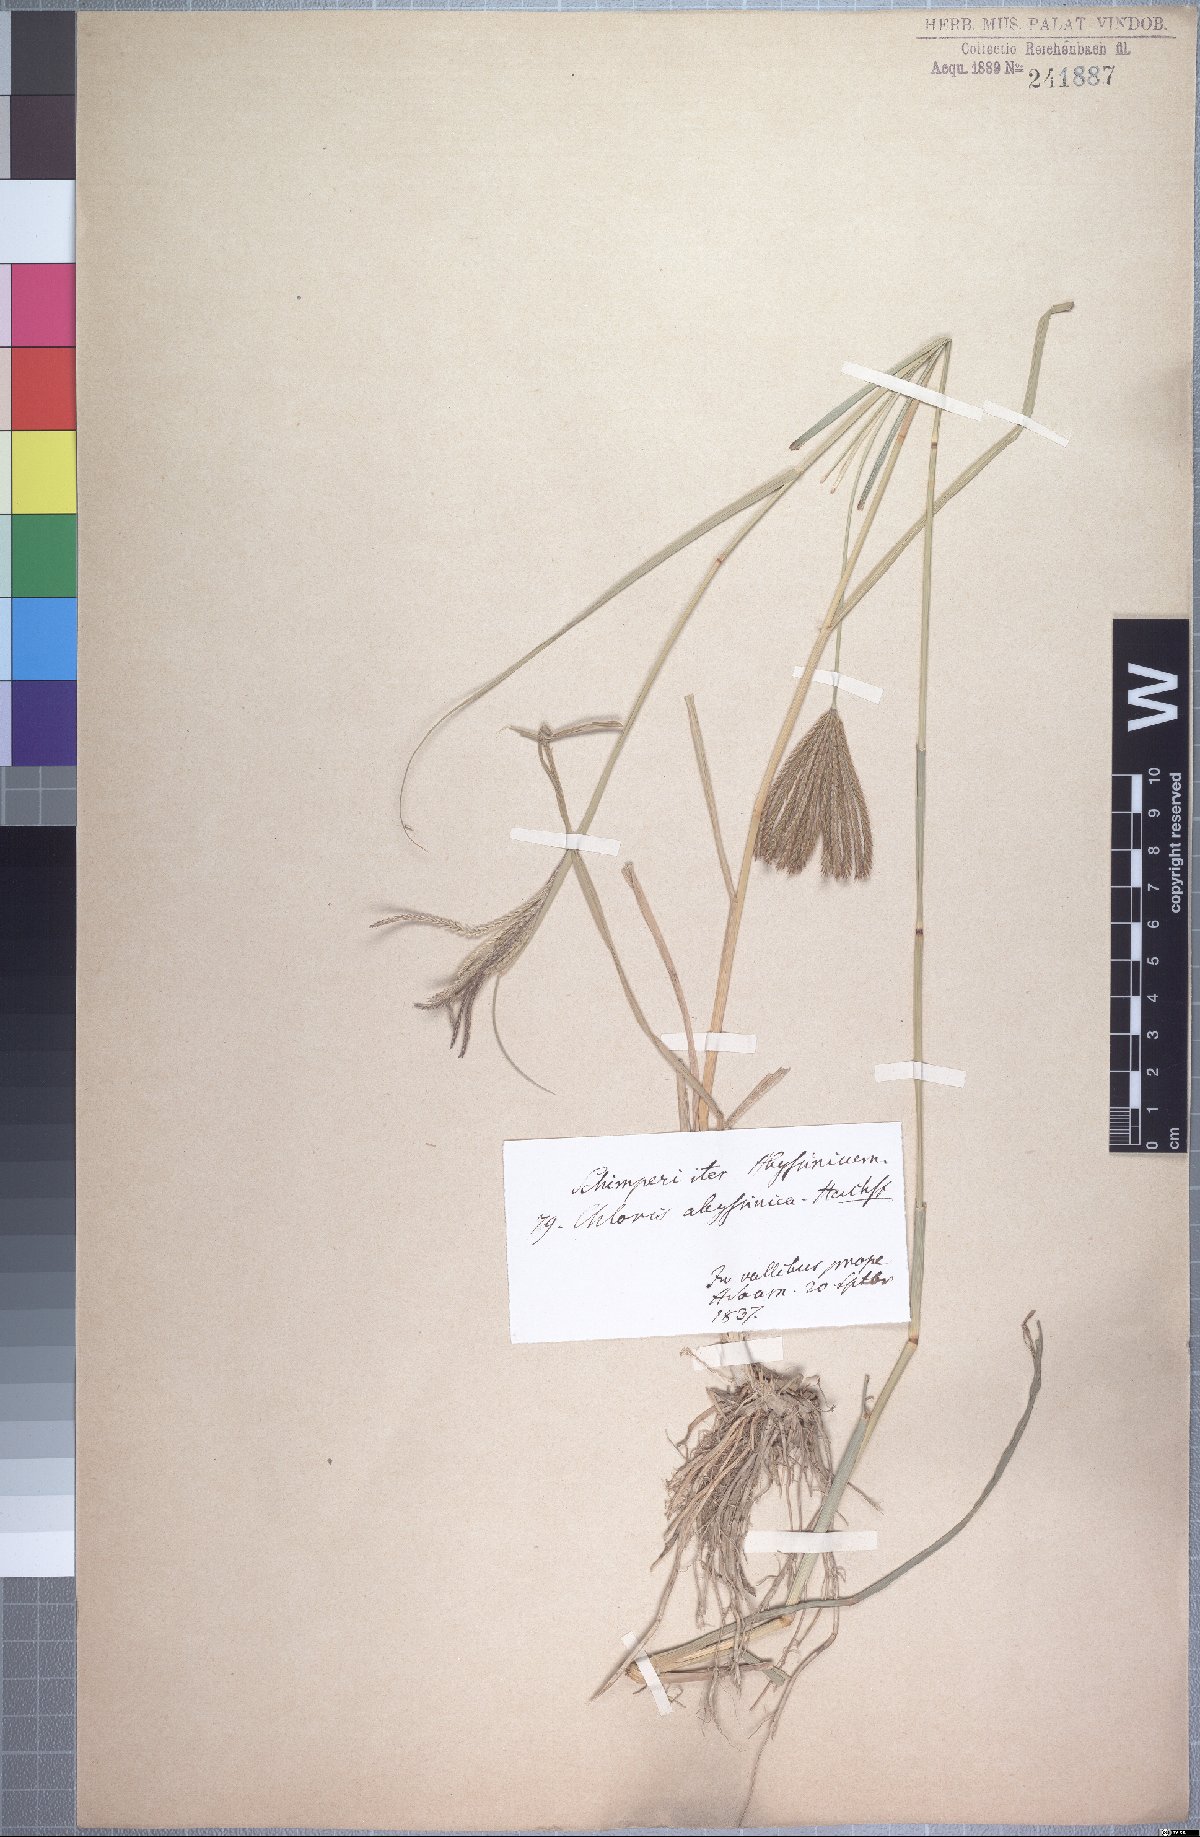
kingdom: Plantae
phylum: Tracheophyta
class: Liliopsida
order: Poales
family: Poaceae
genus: Chloris
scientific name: Chloris gayana
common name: Rhodes grass
